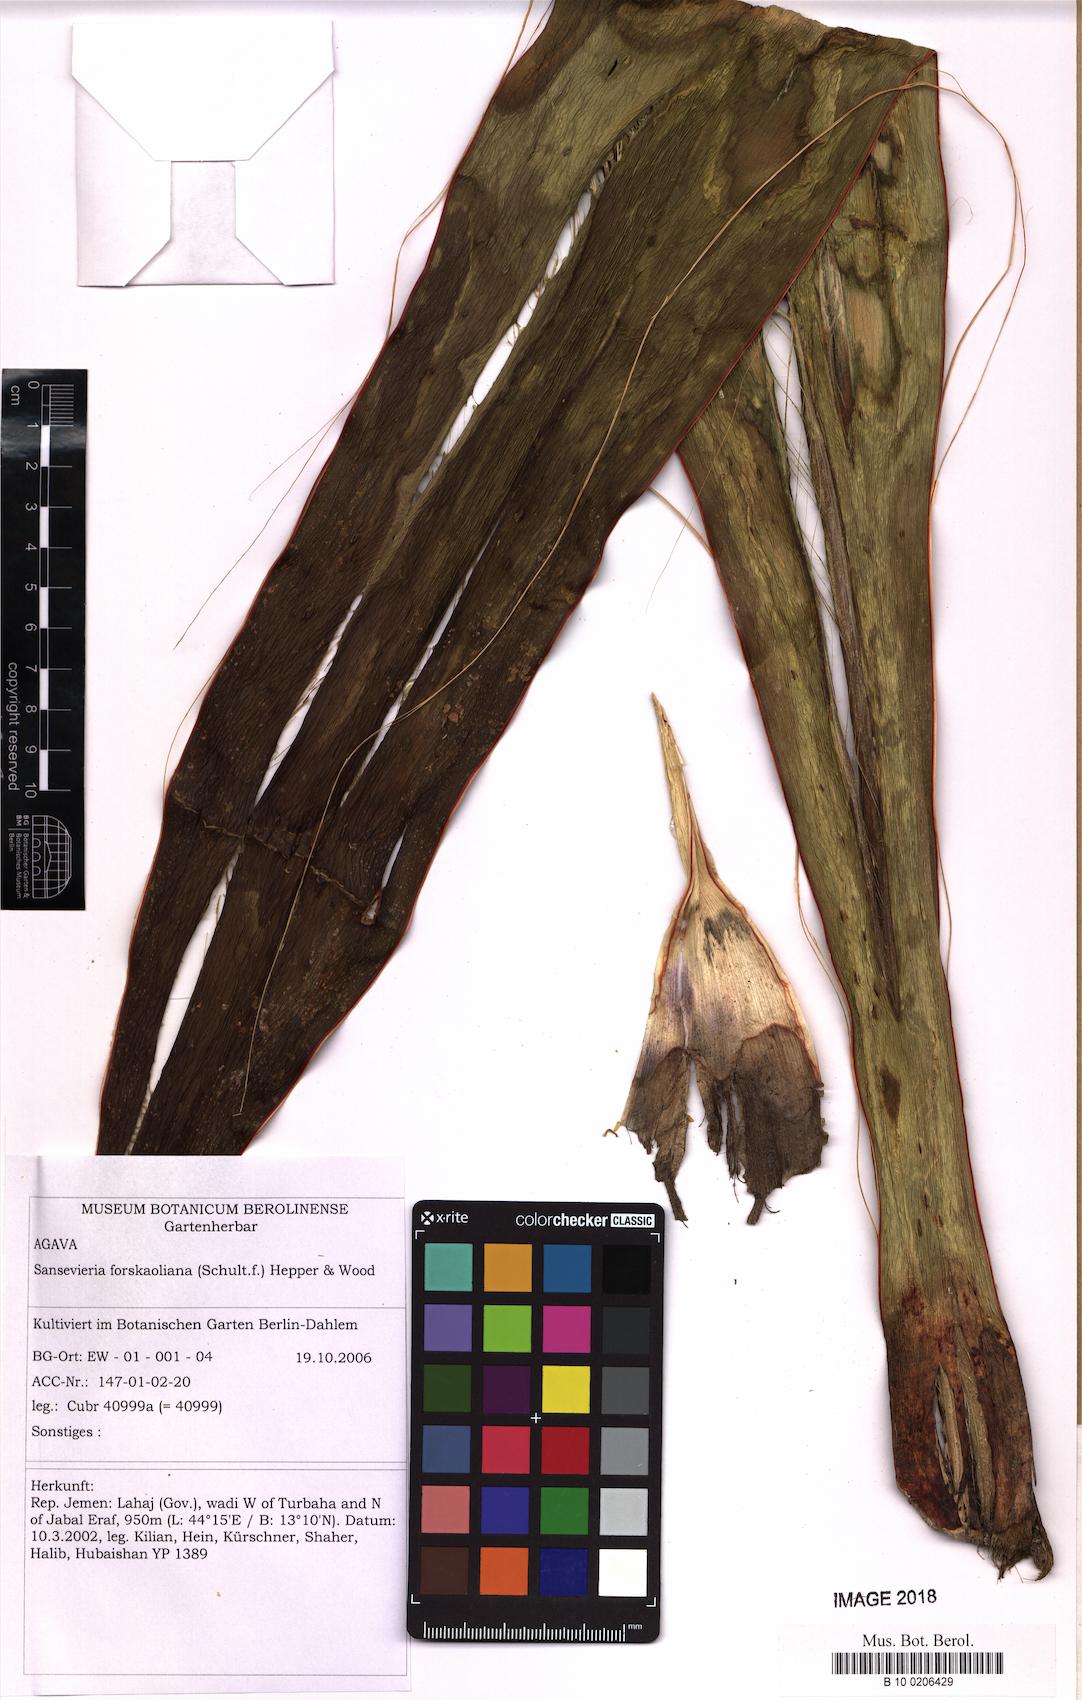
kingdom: Plantae
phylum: Tracheophyta
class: Liliopsida
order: Asparagales
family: Asparagaceae
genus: Dracaena
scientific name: Dracaena forskaliana
